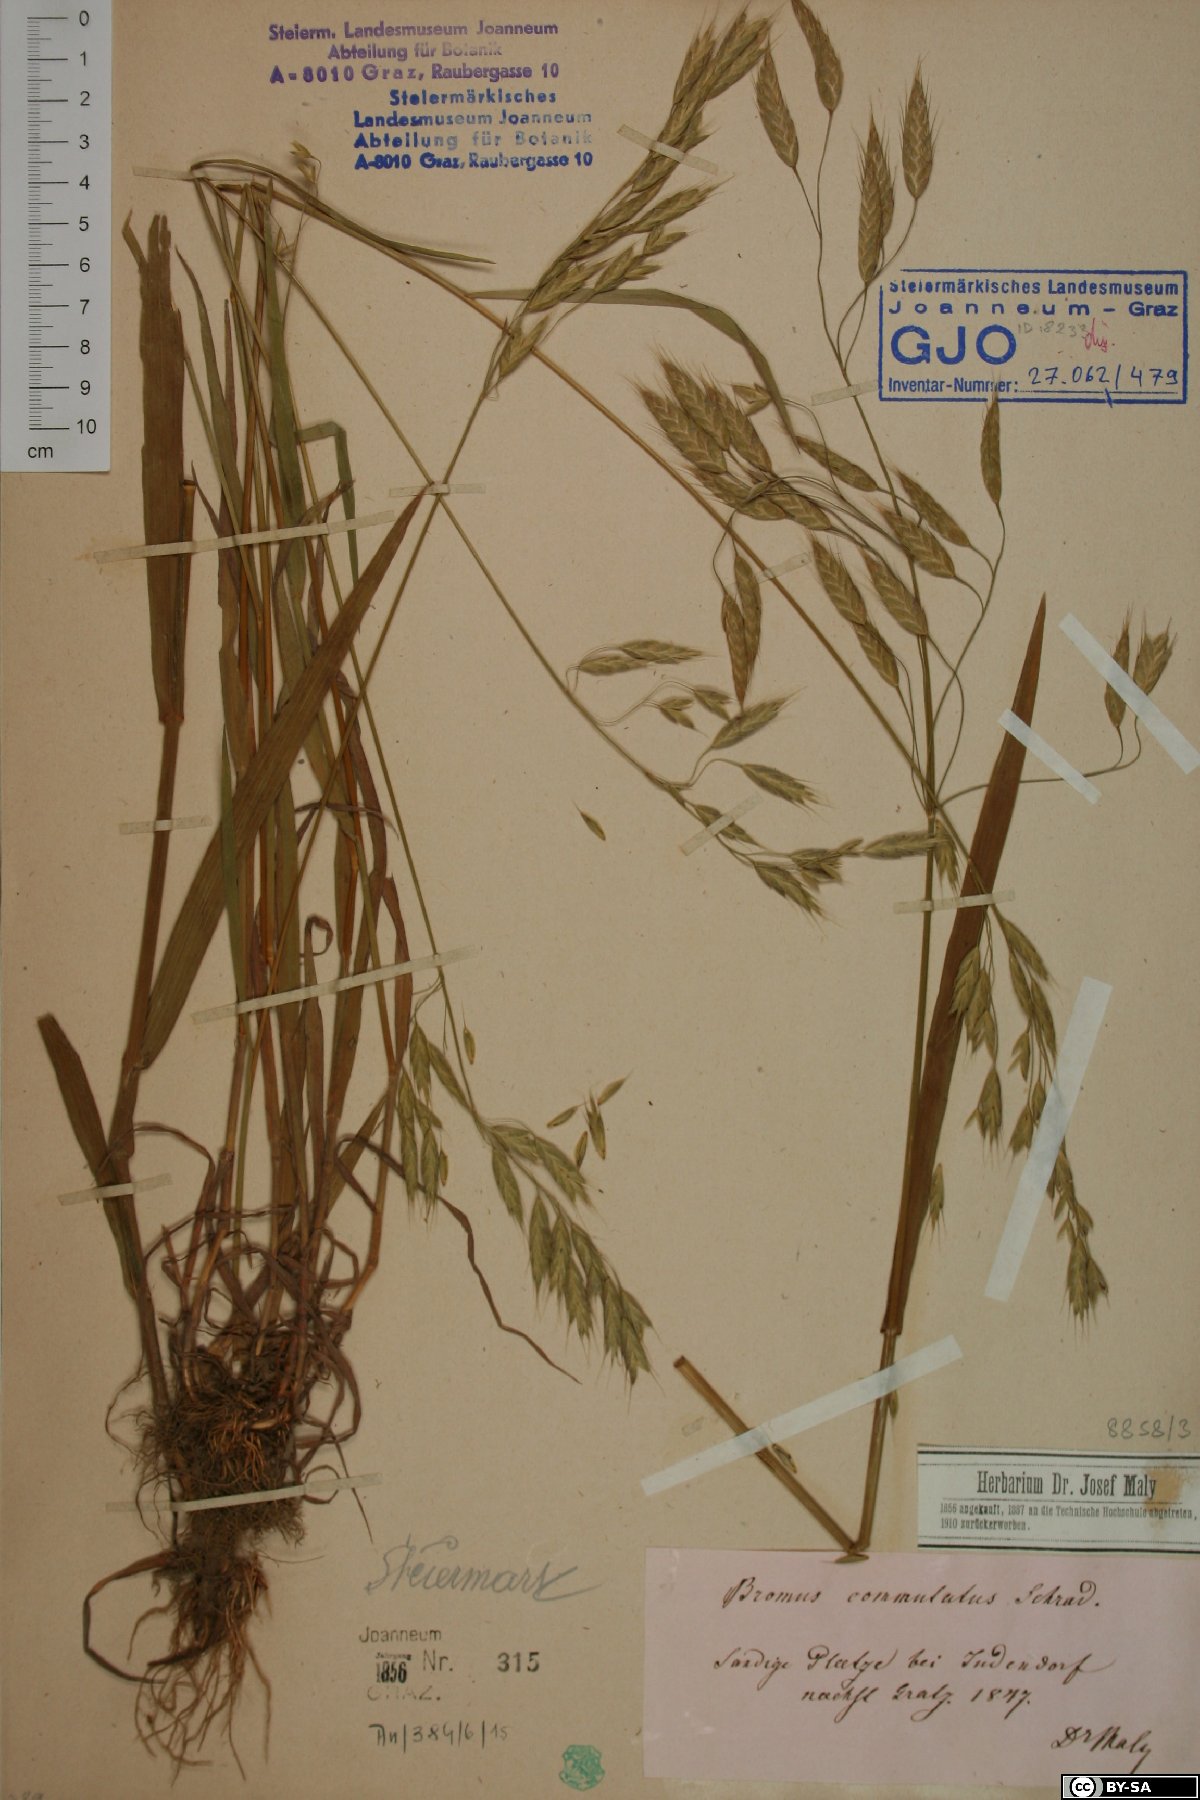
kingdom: Plantae
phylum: Tracheophyta
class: Liliopsida
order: Poales
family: Poaceae
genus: Bromus
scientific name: Bromus commutatus
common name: Meadow brome
